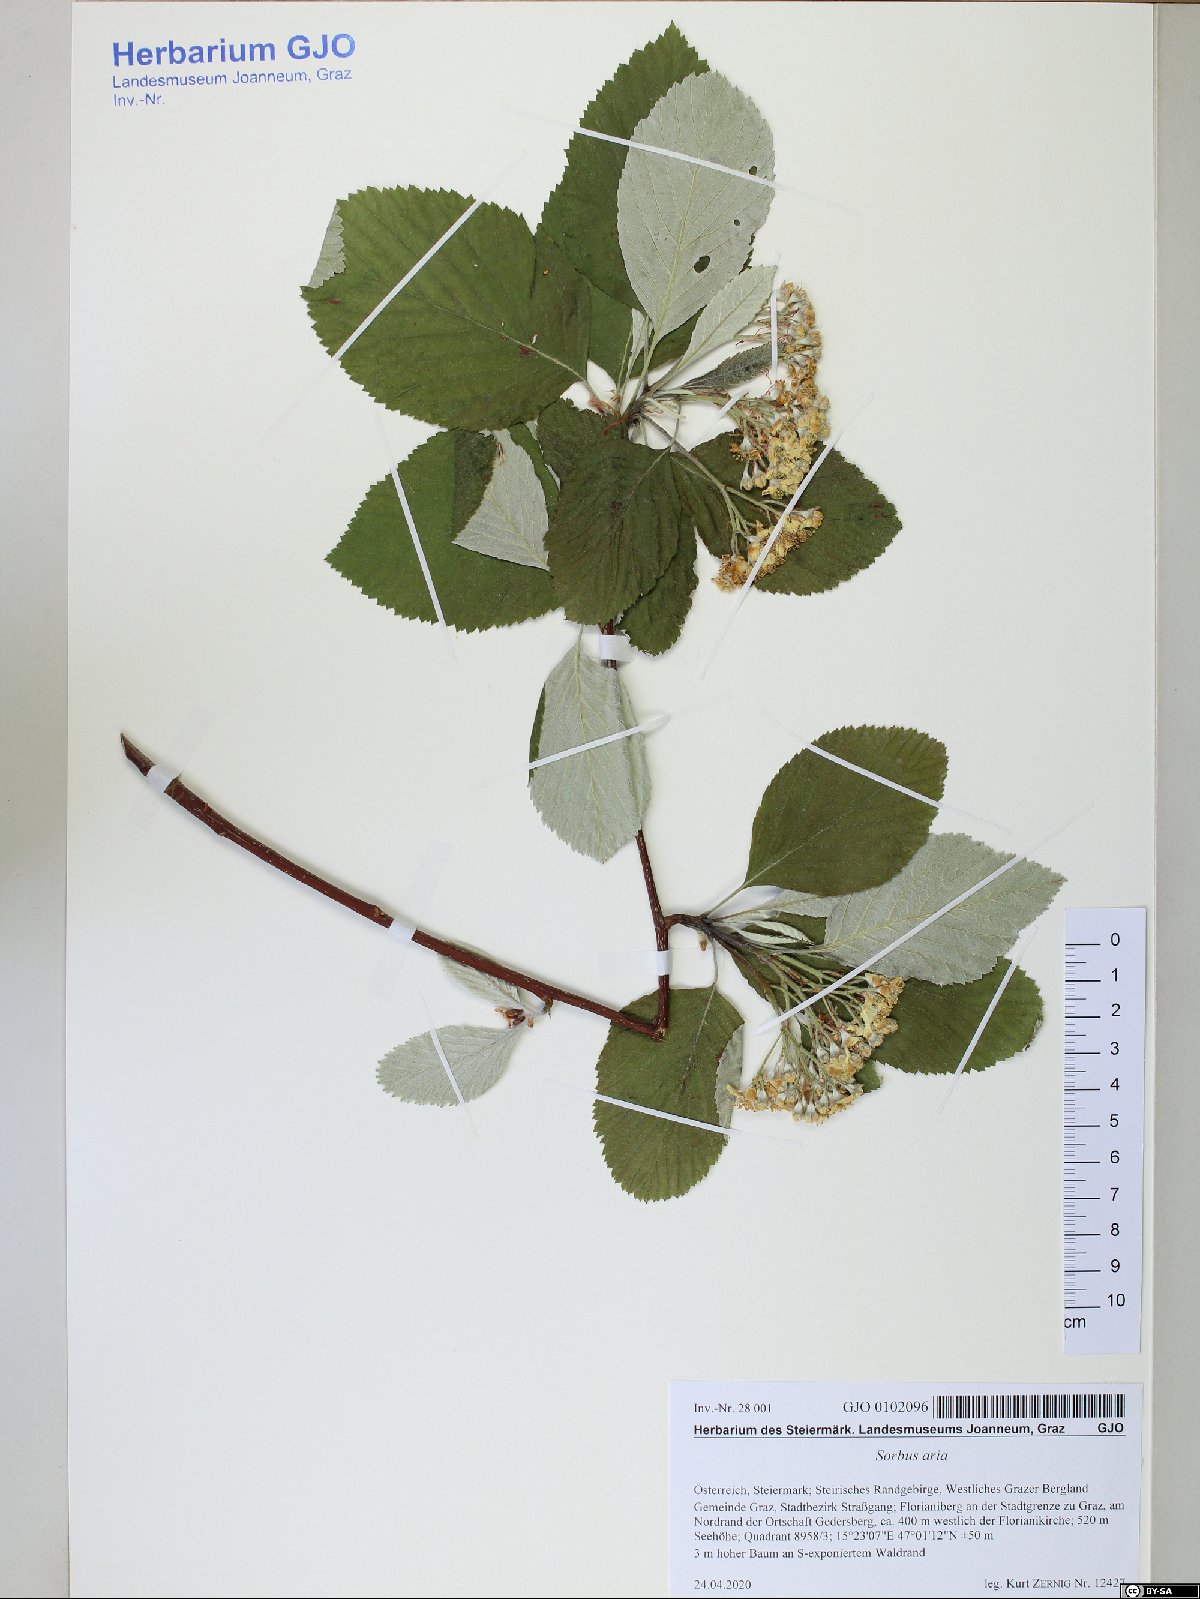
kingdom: Plantae
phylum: Tracheophyta
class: Magnoliopsida
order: Rosales
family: Rosaceae
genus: Aria
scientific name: Aria edulis
